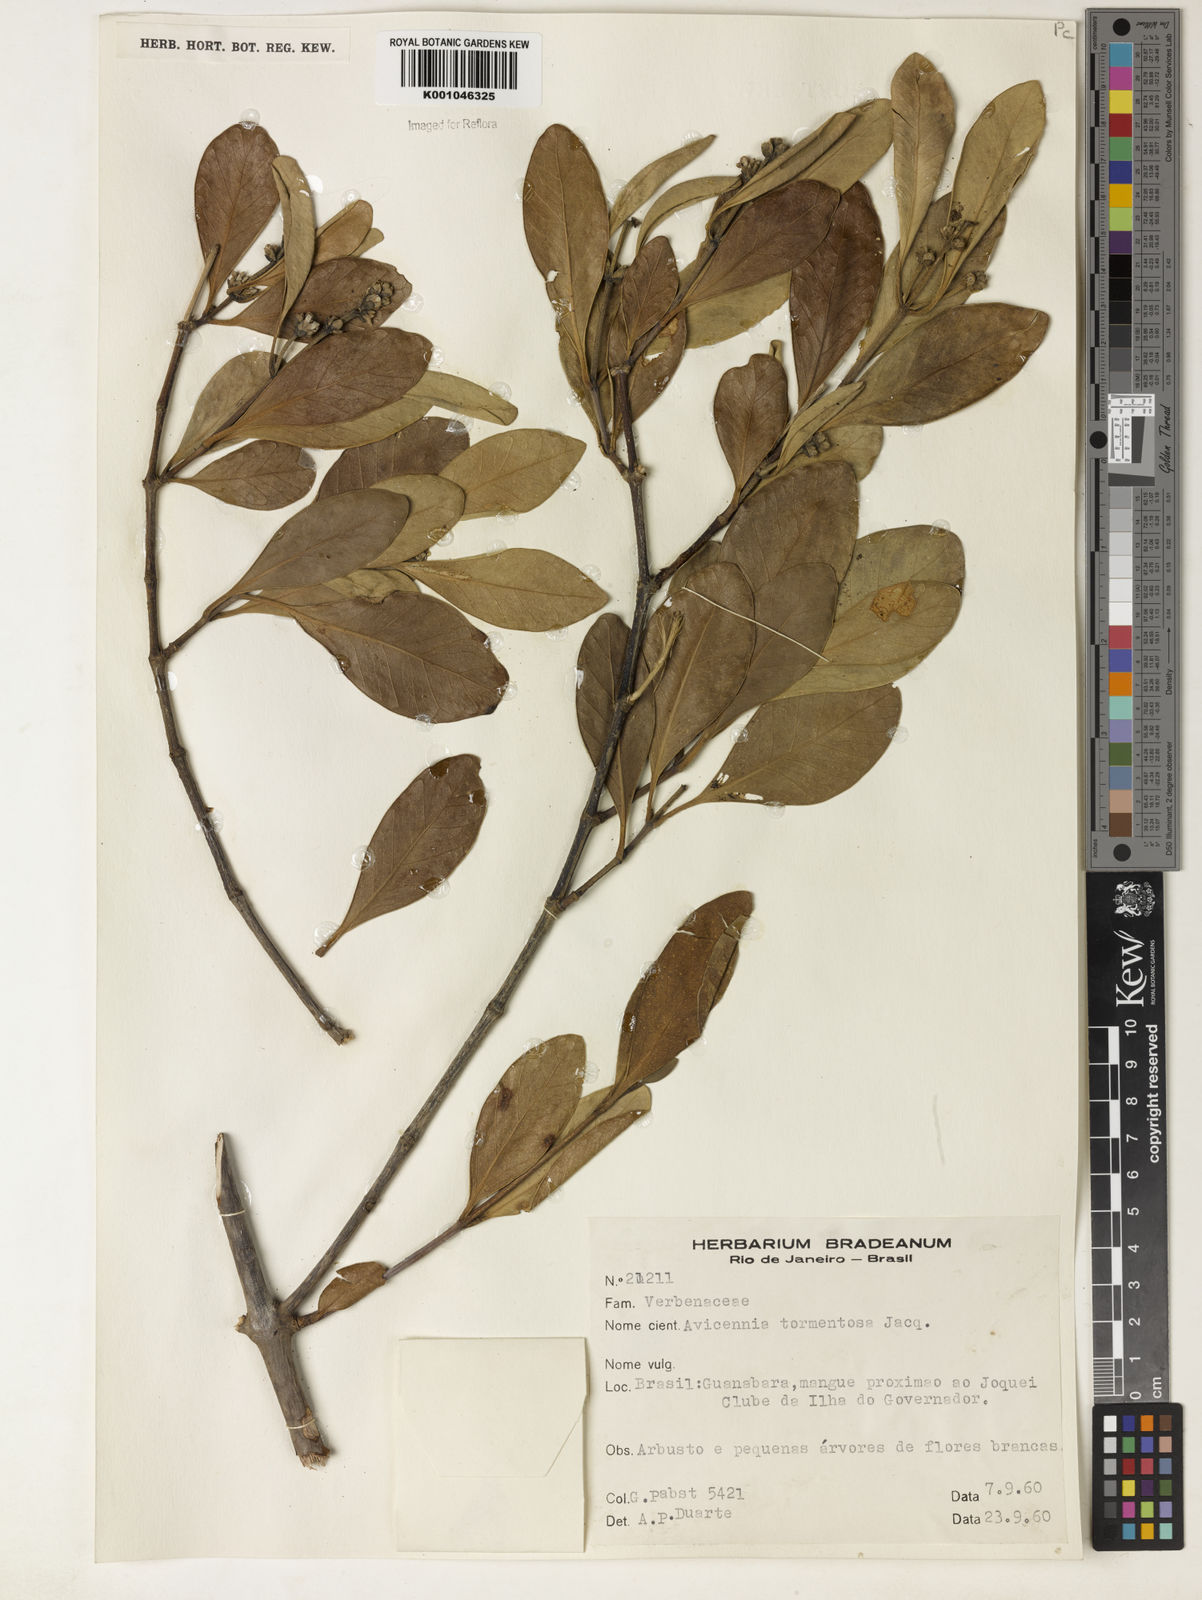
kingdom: Plantae
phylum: Tracheophyta
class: Magnoliopsida
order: Lamiales
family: Acanthaceae
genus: Avicennia
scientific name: Avicennia germinans
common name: Black mangrove
